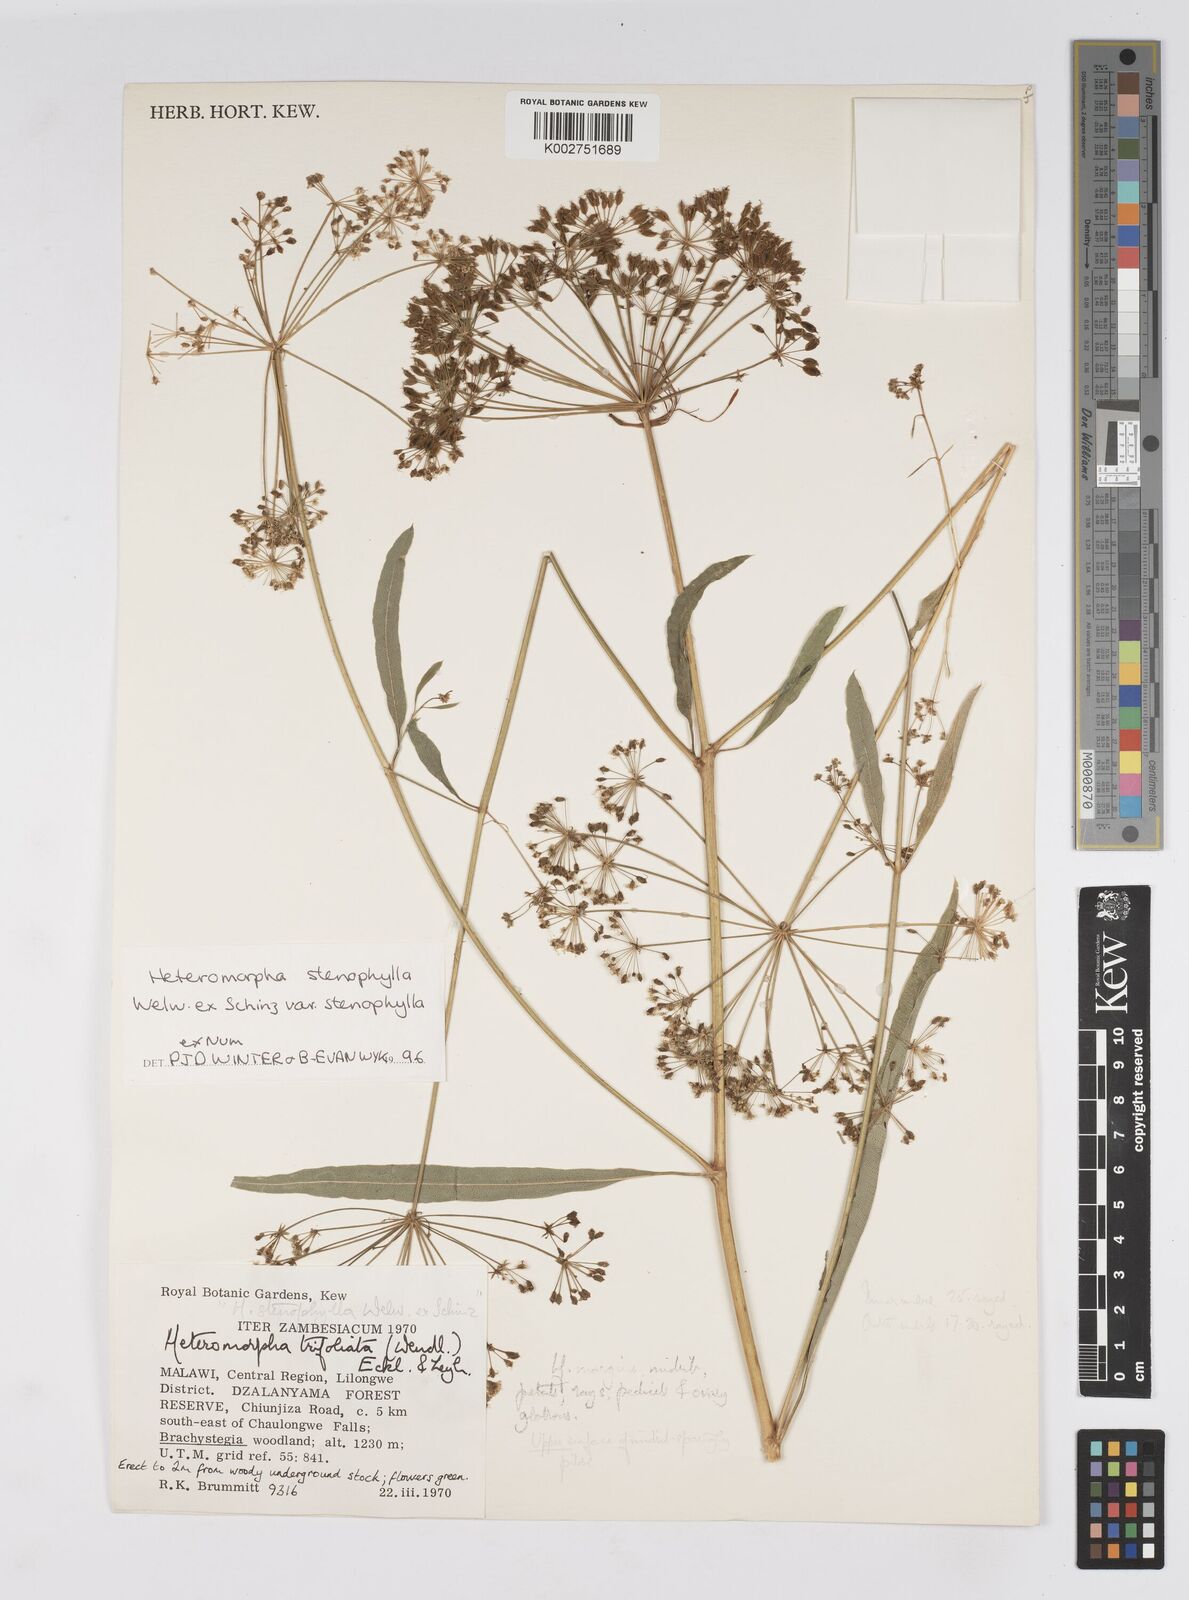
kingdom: Plantae
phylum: Tracheophyta
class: Magnoliopsida
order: Apiales
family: Apiaceae
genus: Heteromorpha
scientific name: Heteromorpha stenophylla
